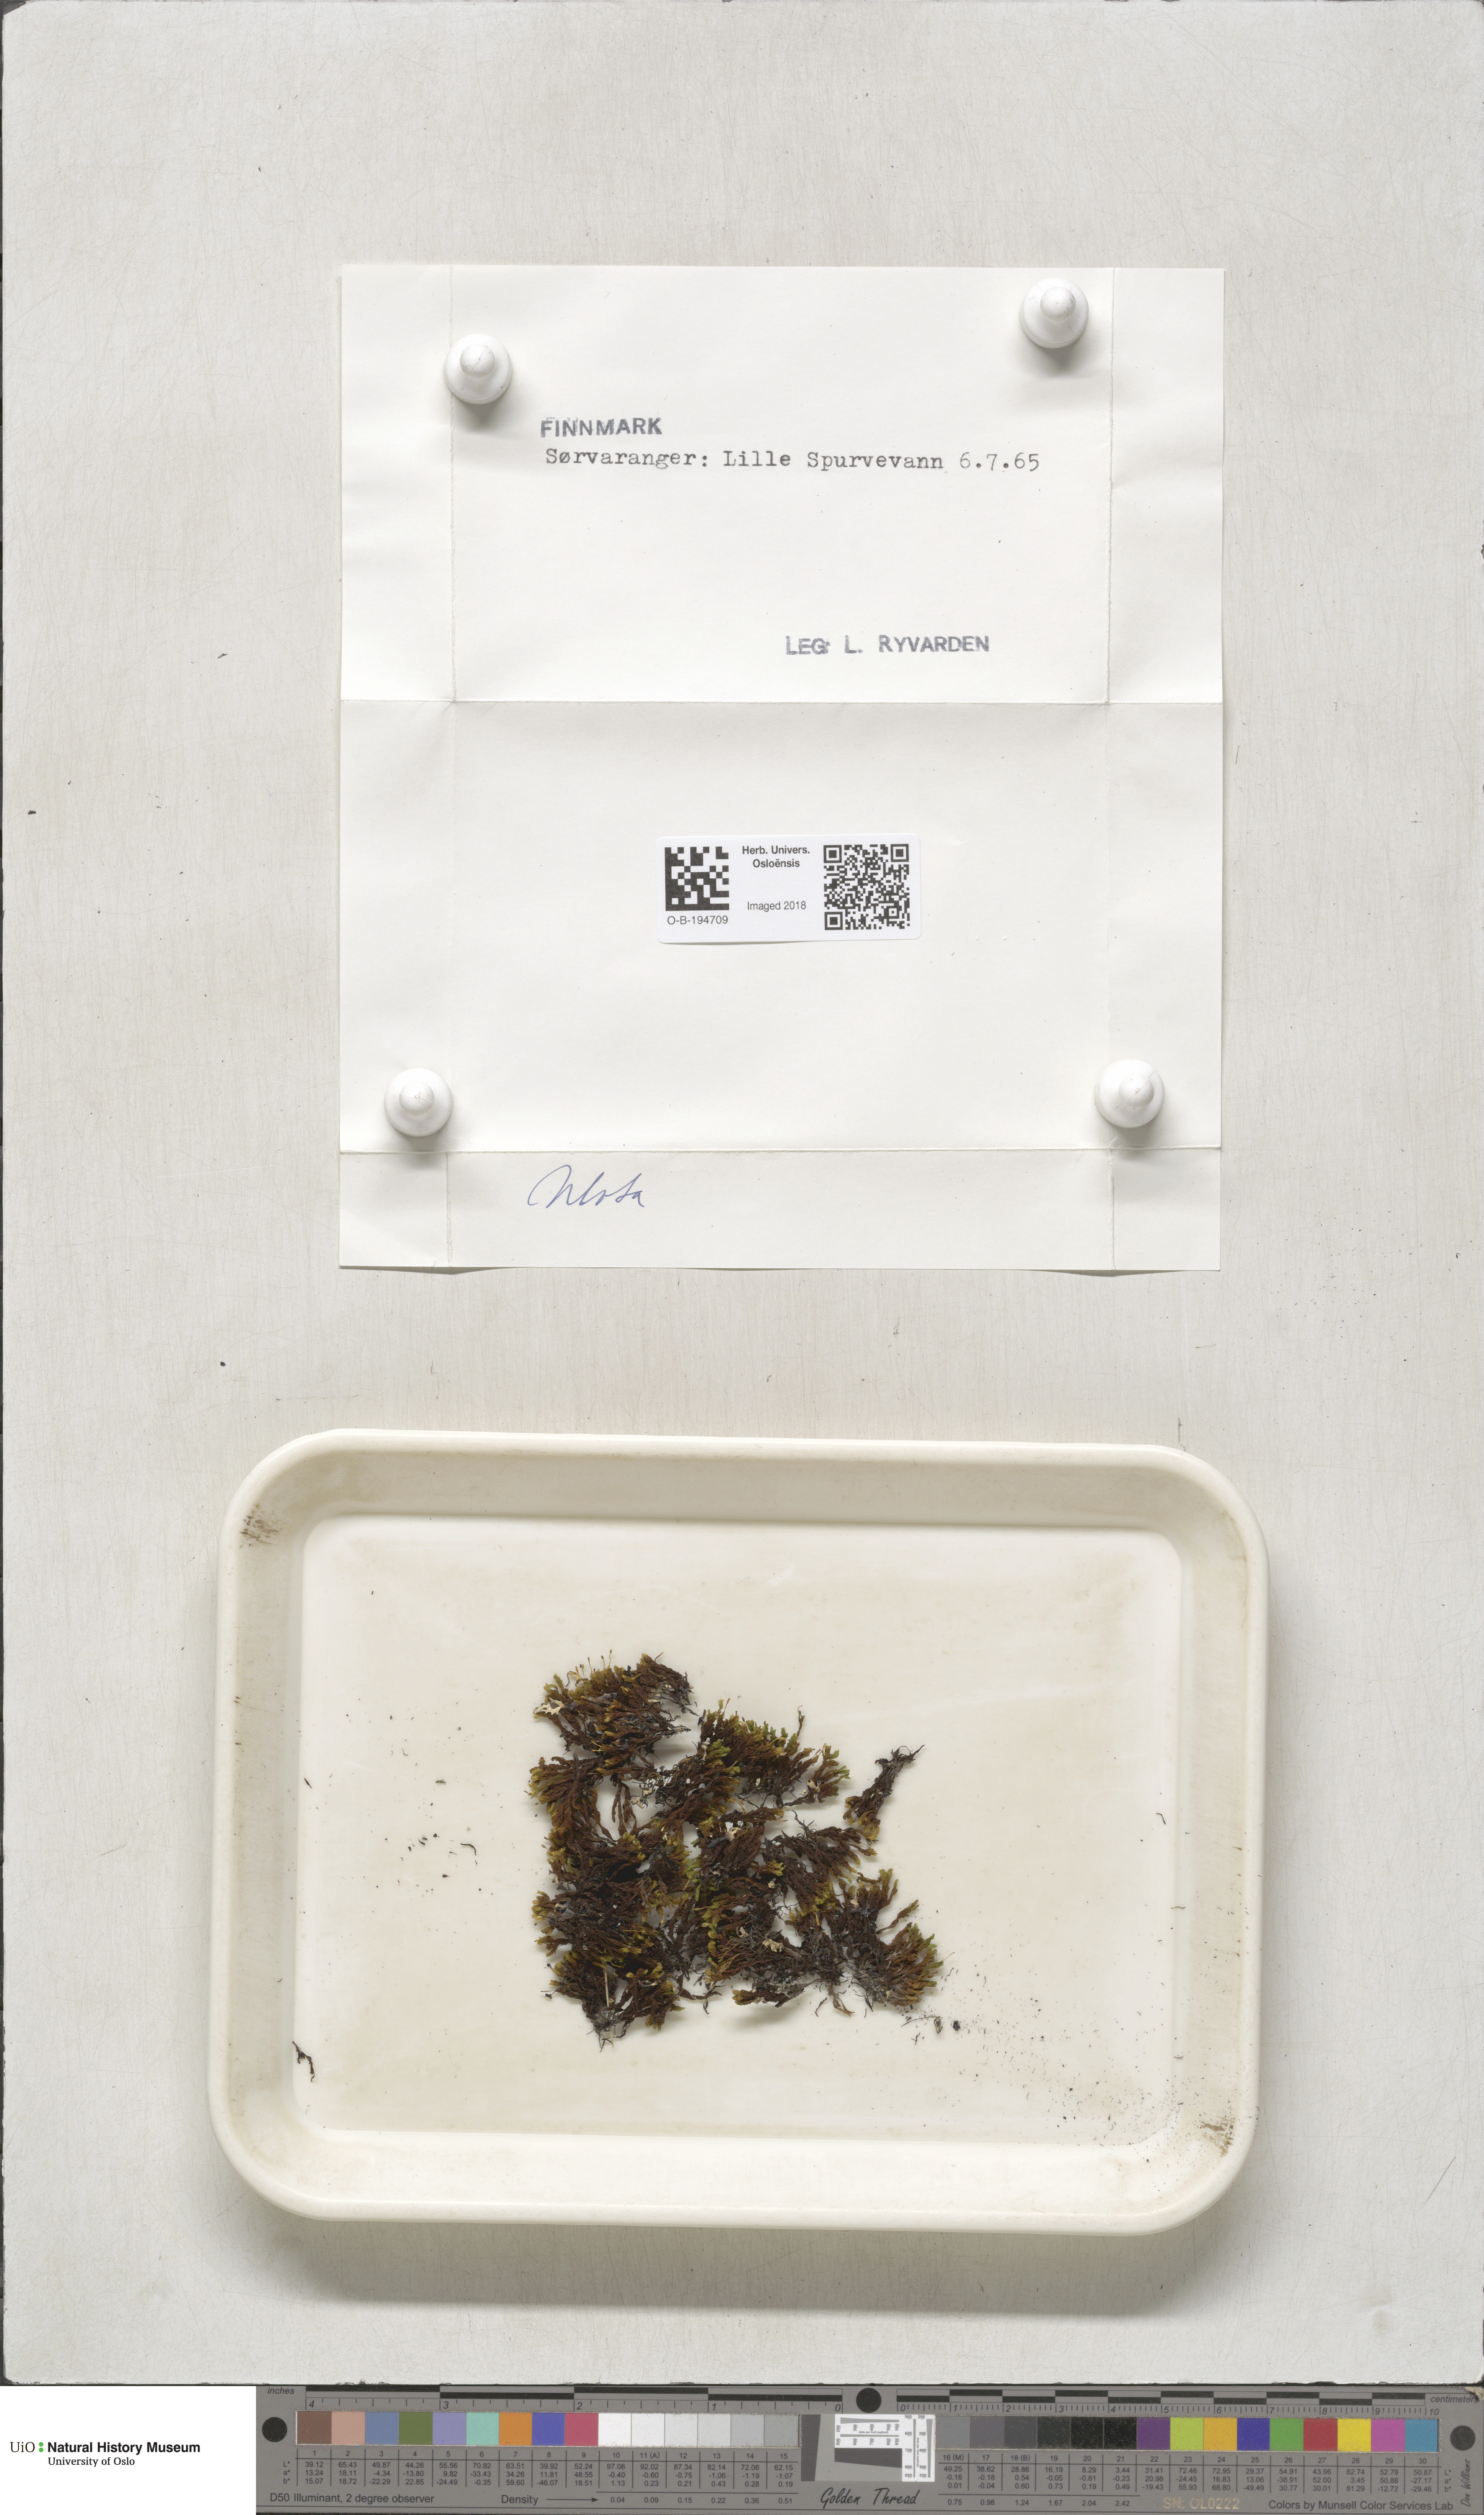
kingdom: Plantae
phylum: Bryophyta
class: Bryopsida
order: Orthotrichales
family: Orthotrichaceae
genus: Ulota
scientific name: Ulota
